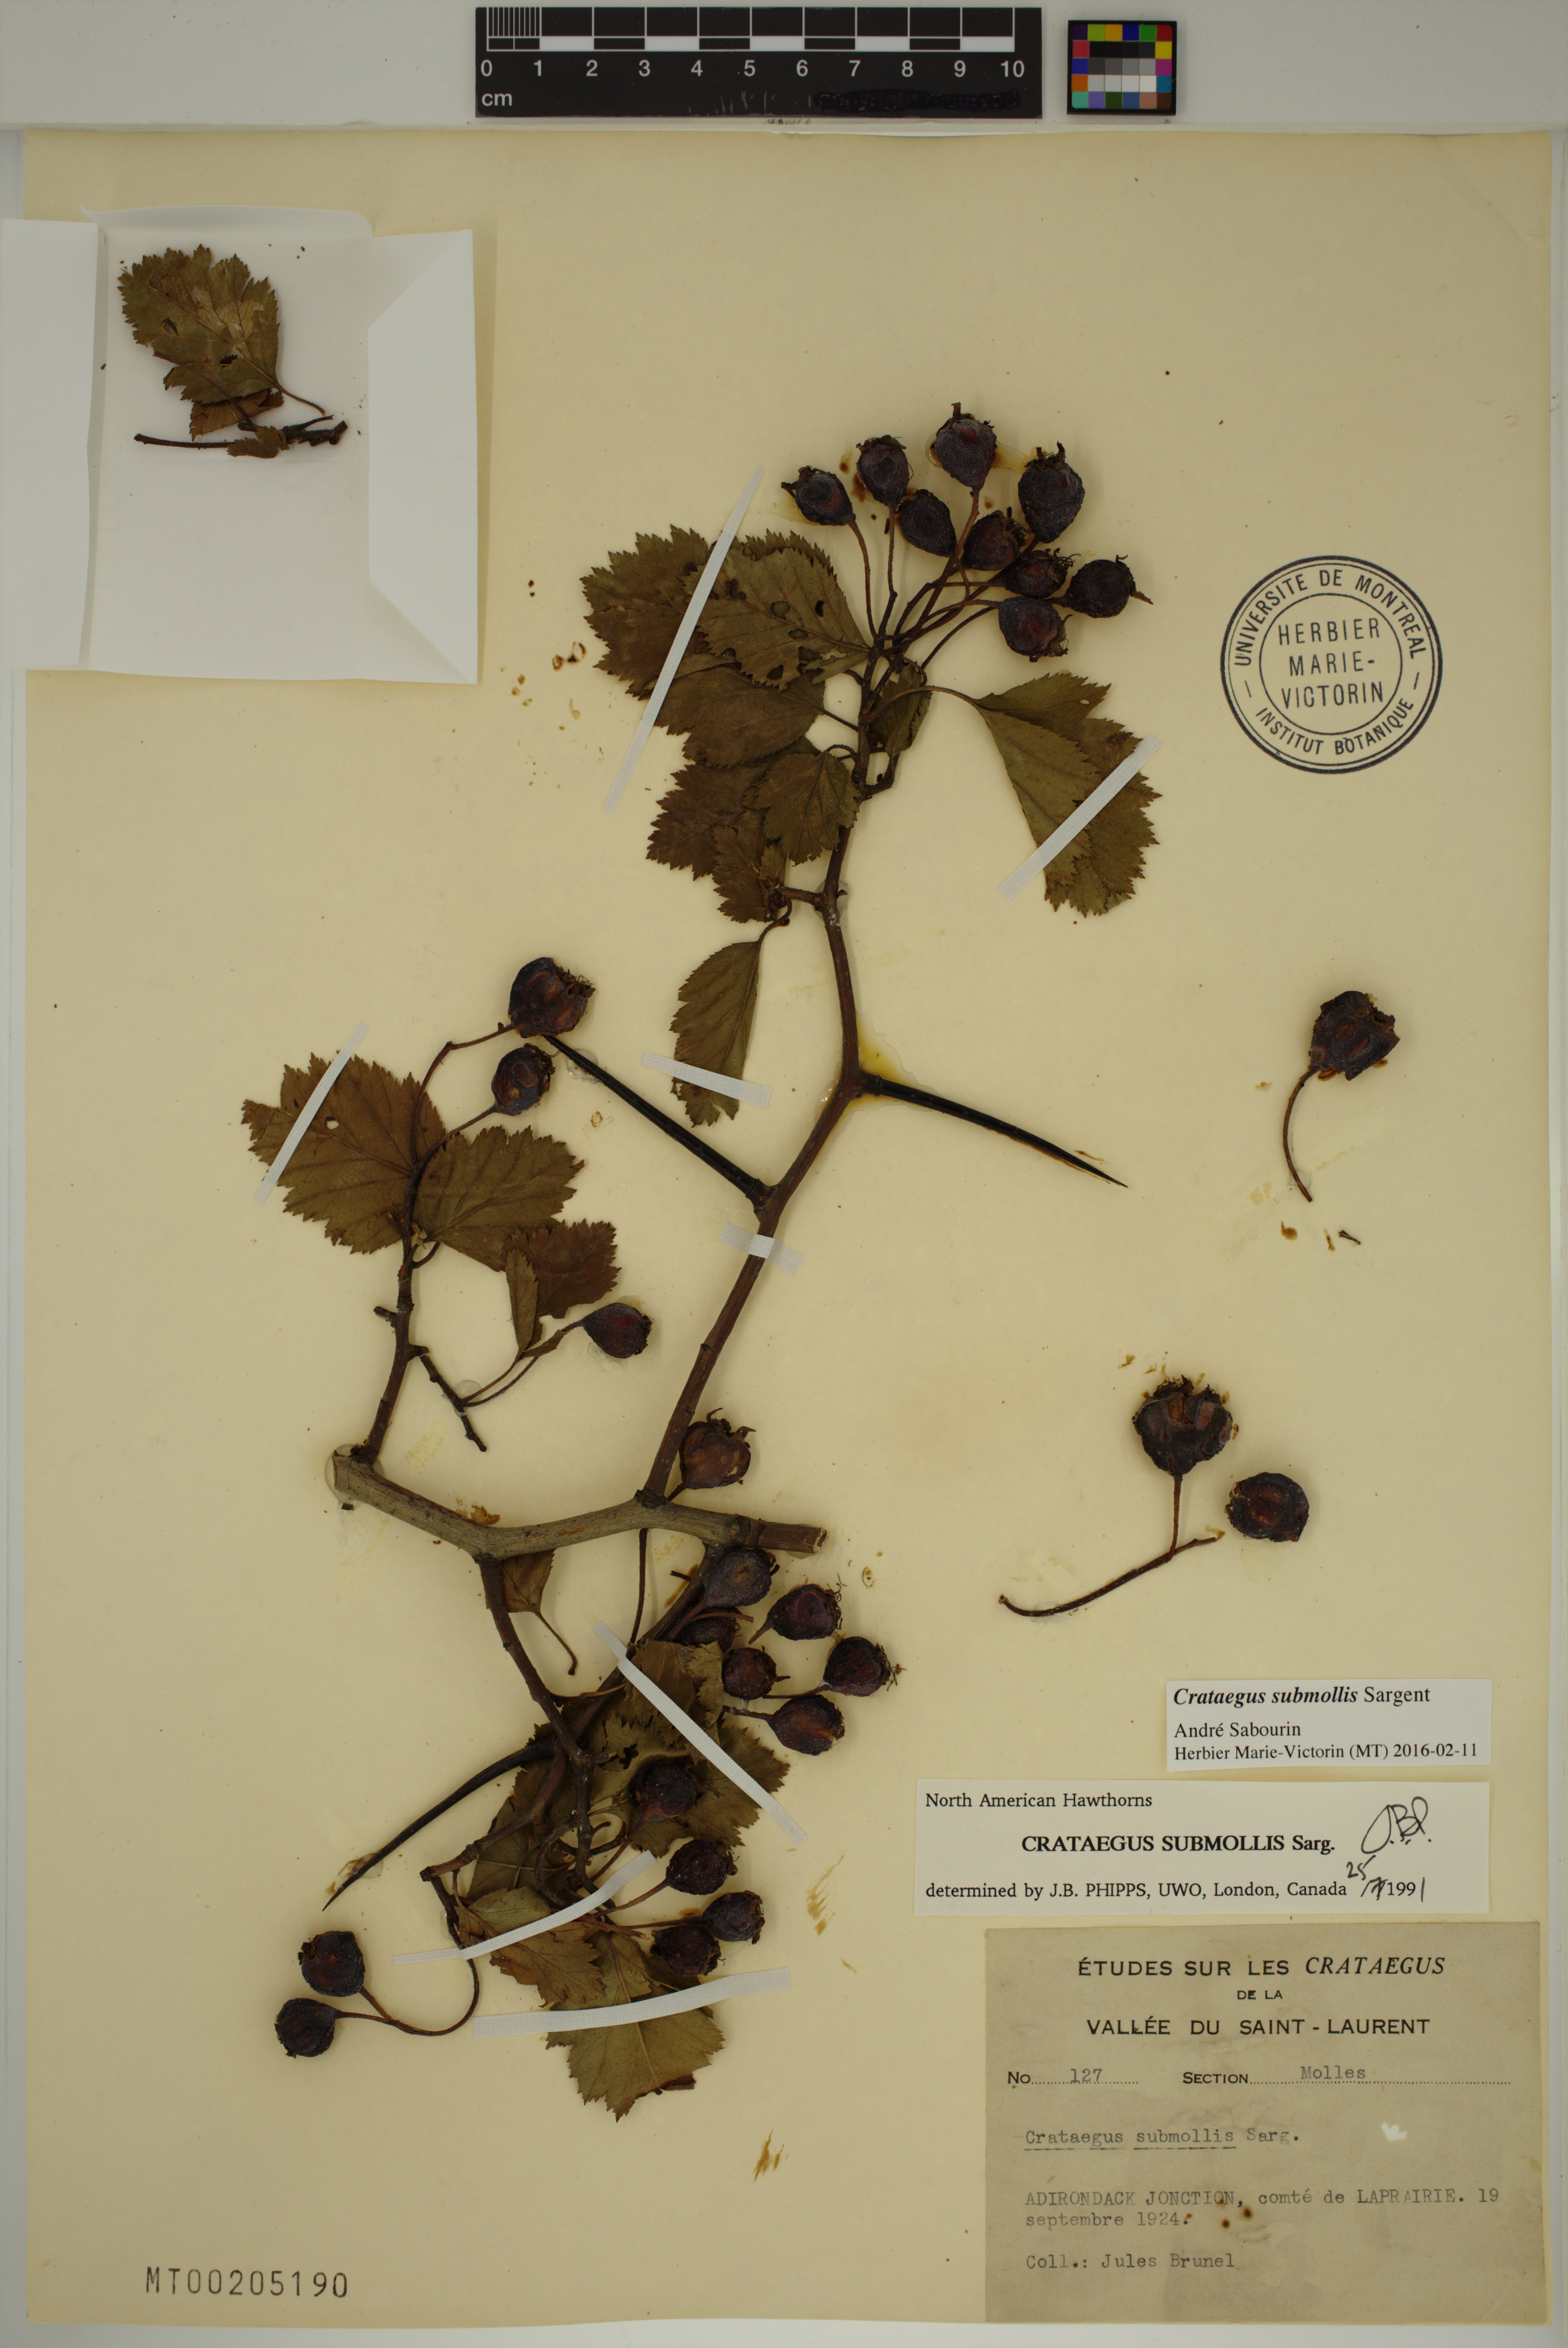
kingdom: Plantae
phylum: Tracheophyta
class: Magnoliopsida
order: Rosales
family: Rosaceae
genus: Crataegus
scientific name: Crataegus submollis
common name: Hairy cockspurthorn
